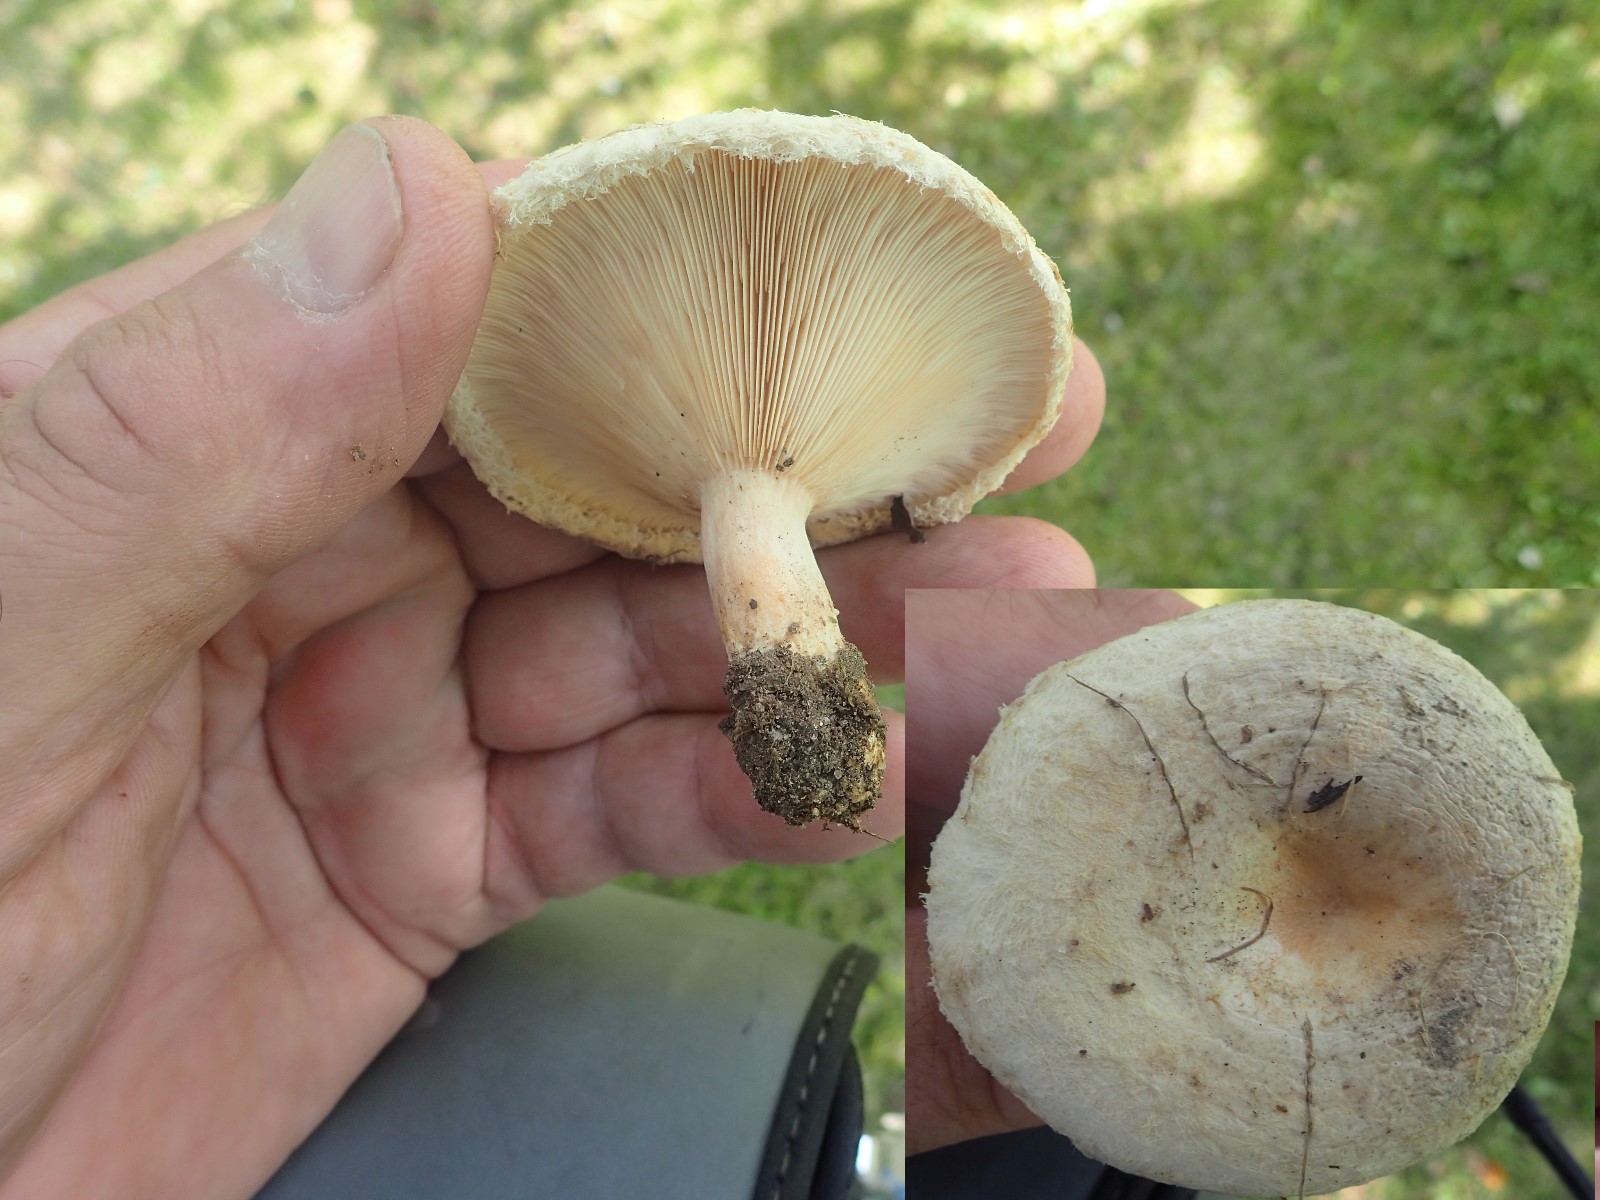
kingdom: Fungi
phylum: Basidiomycota
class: Agaricomycetes
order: Russulales
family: Russulaceae
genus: Lactarius
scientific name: Lactarius pubescens
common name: dunet mælkehat
